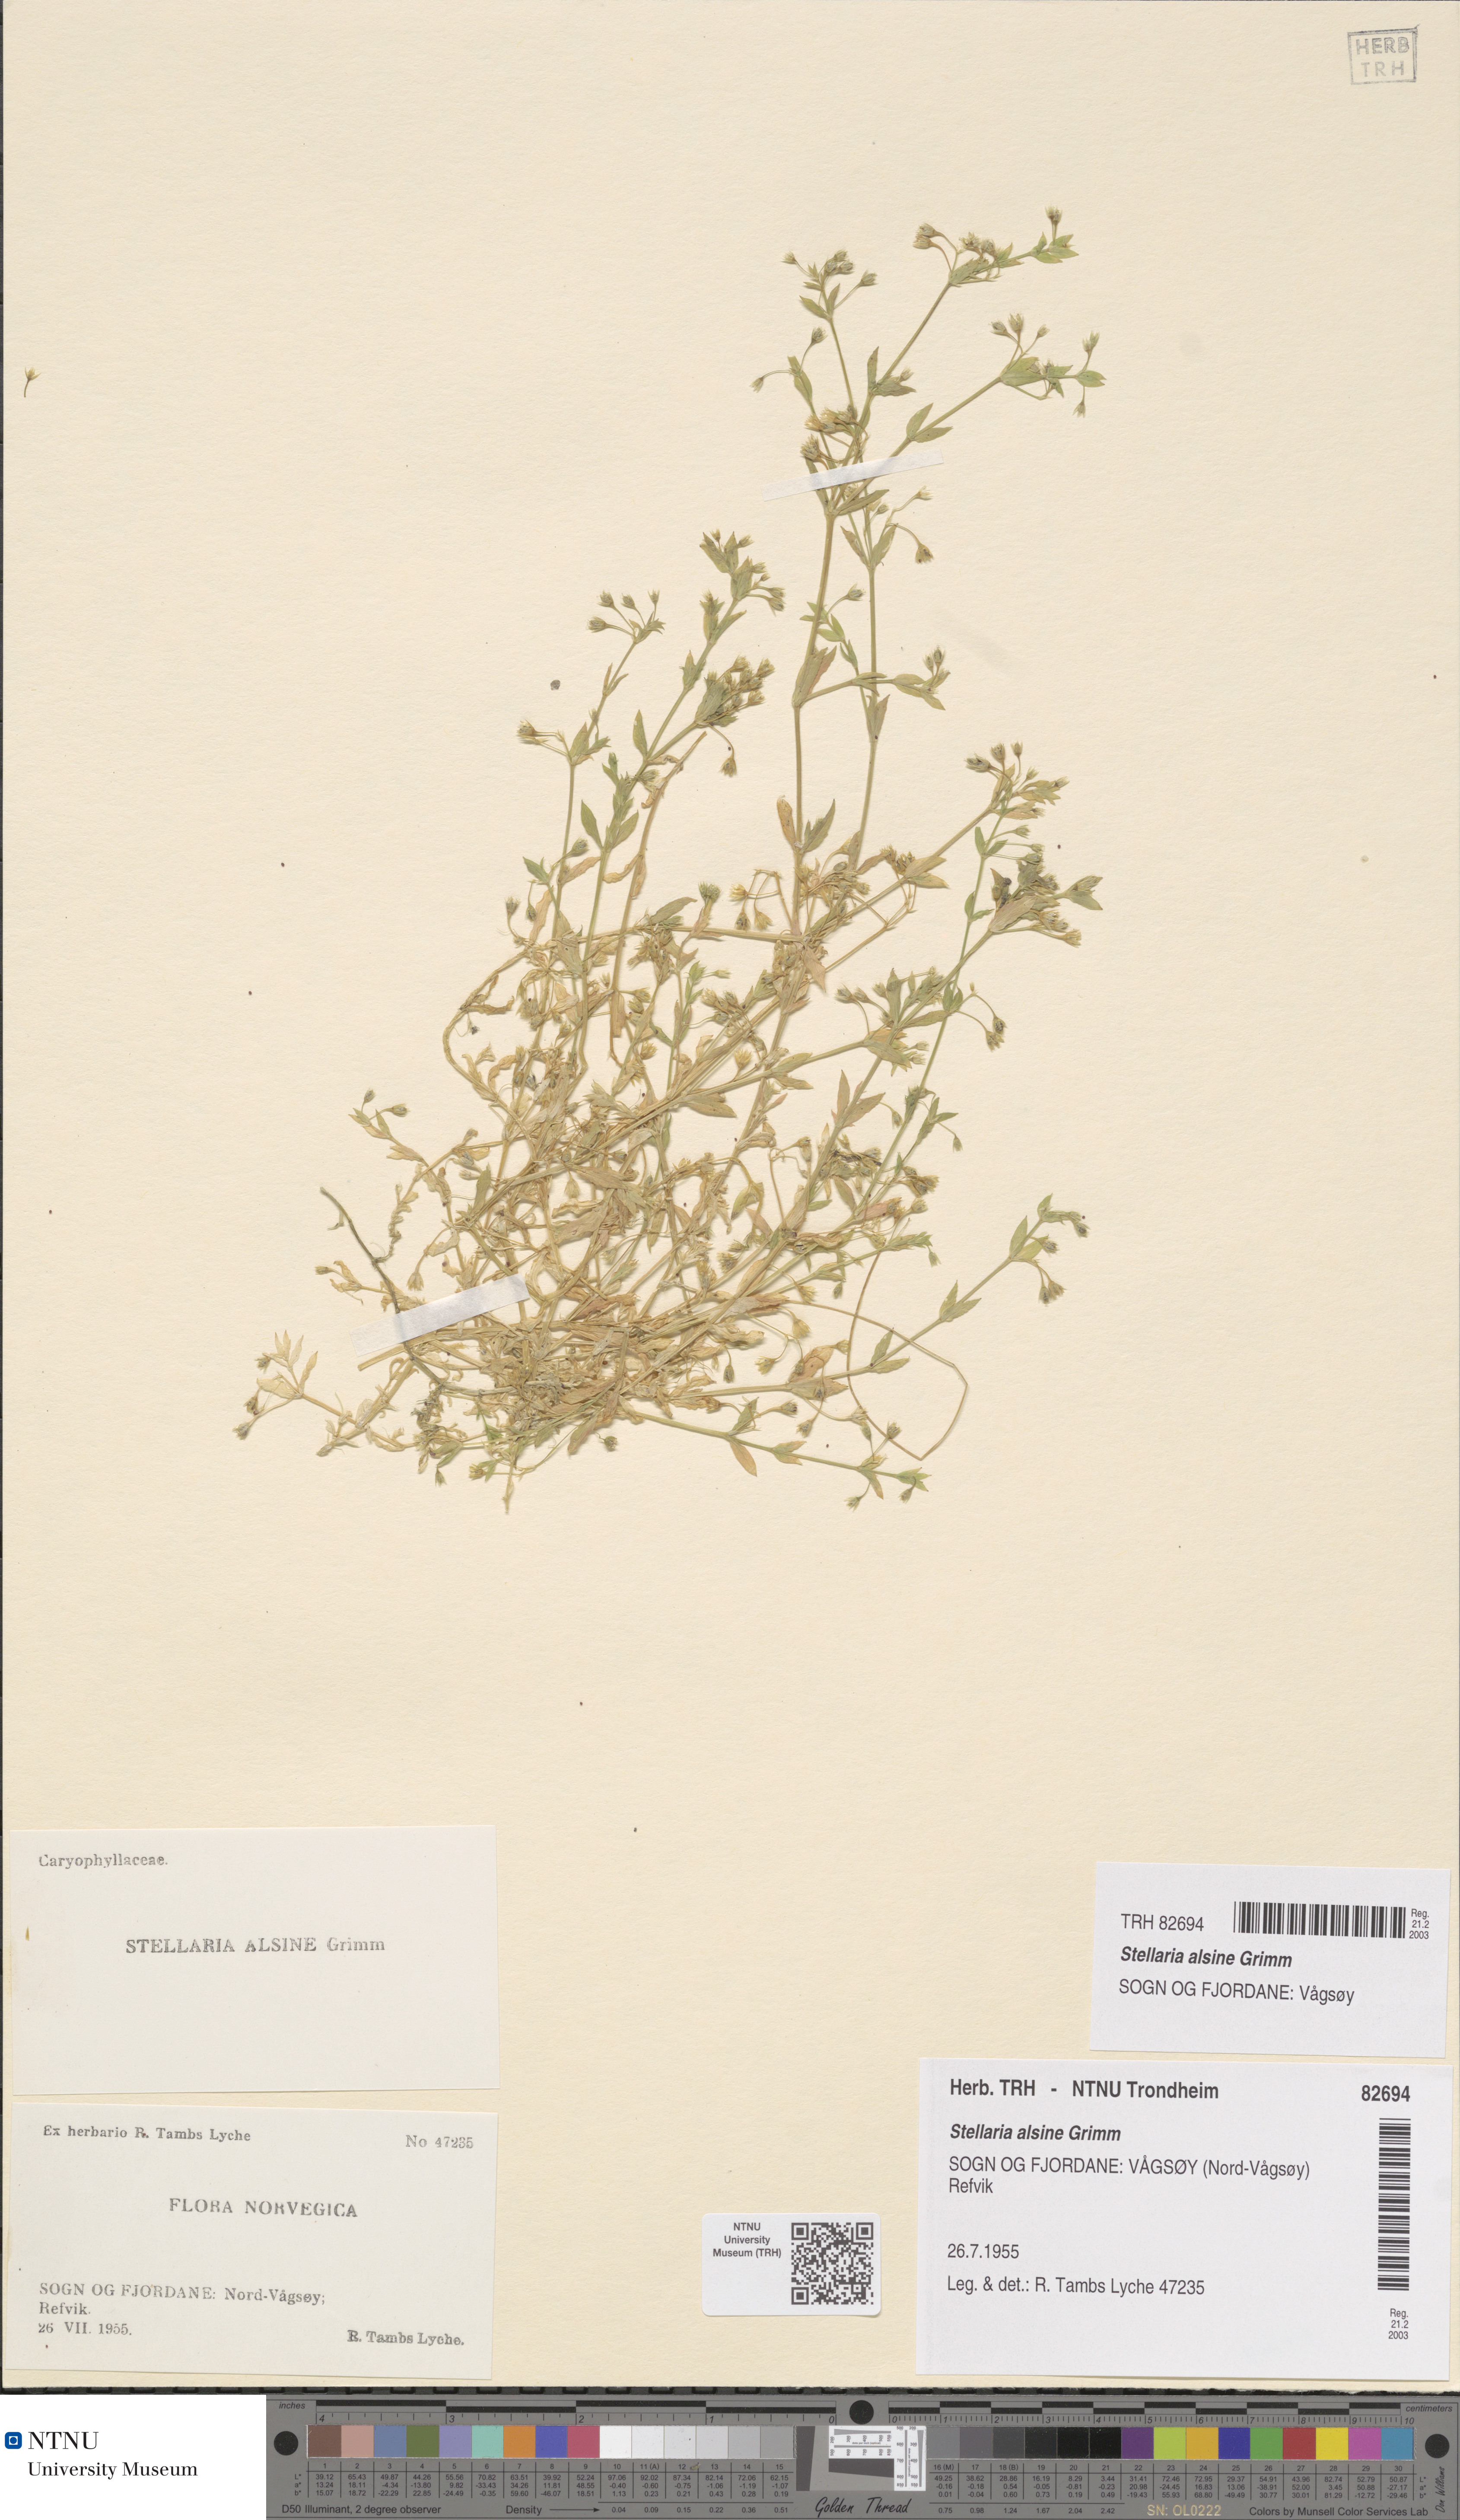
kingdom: Plantae
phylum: Tracheophyta
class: Magnoliopsida
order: Caryophyllales
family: Caryophyllaceae
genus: Stellaria
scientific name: Stellaria alsine
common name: Bog stitchwort
